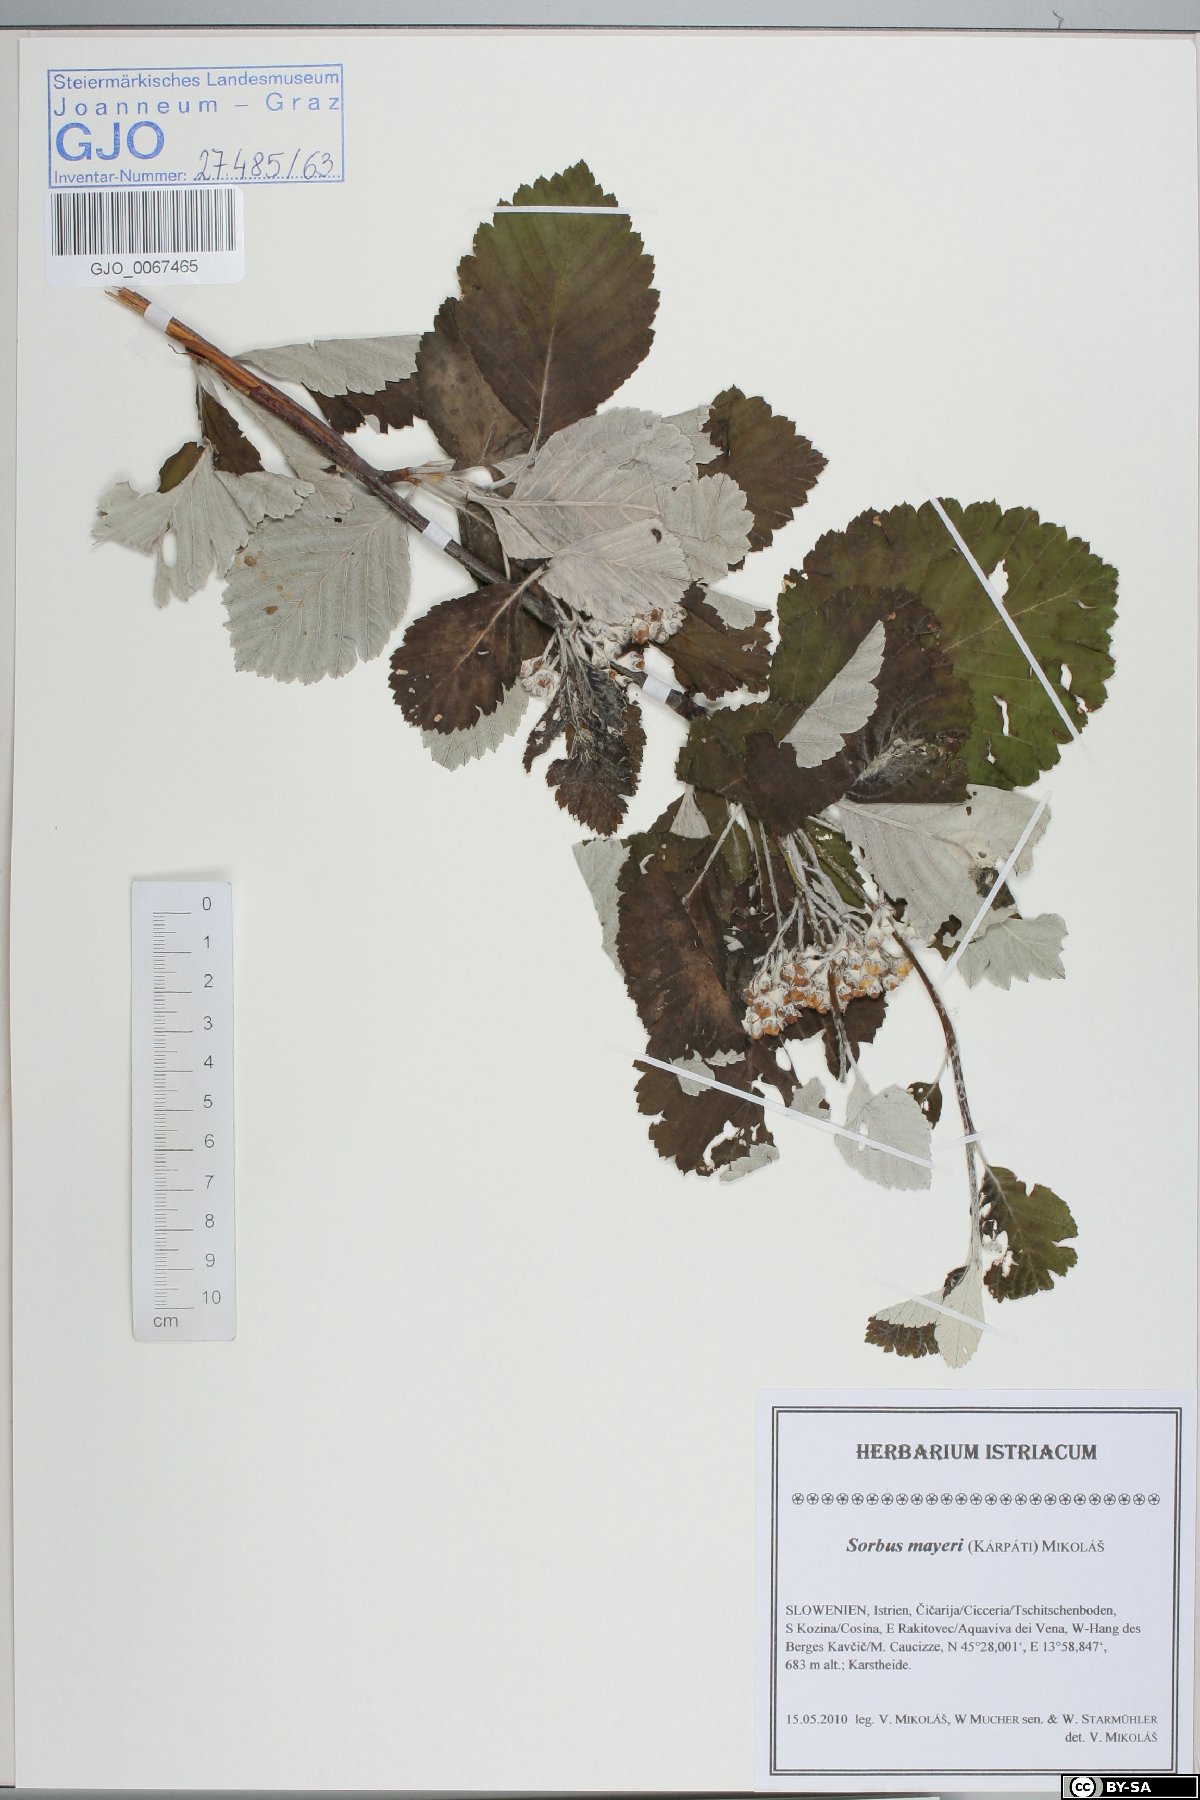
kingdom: Plantae
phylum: Tracheophyta
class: Magnoliopsida
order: Rosales
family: Rosaceae
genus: Hedlundia
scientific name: Hedlundia mayeri
